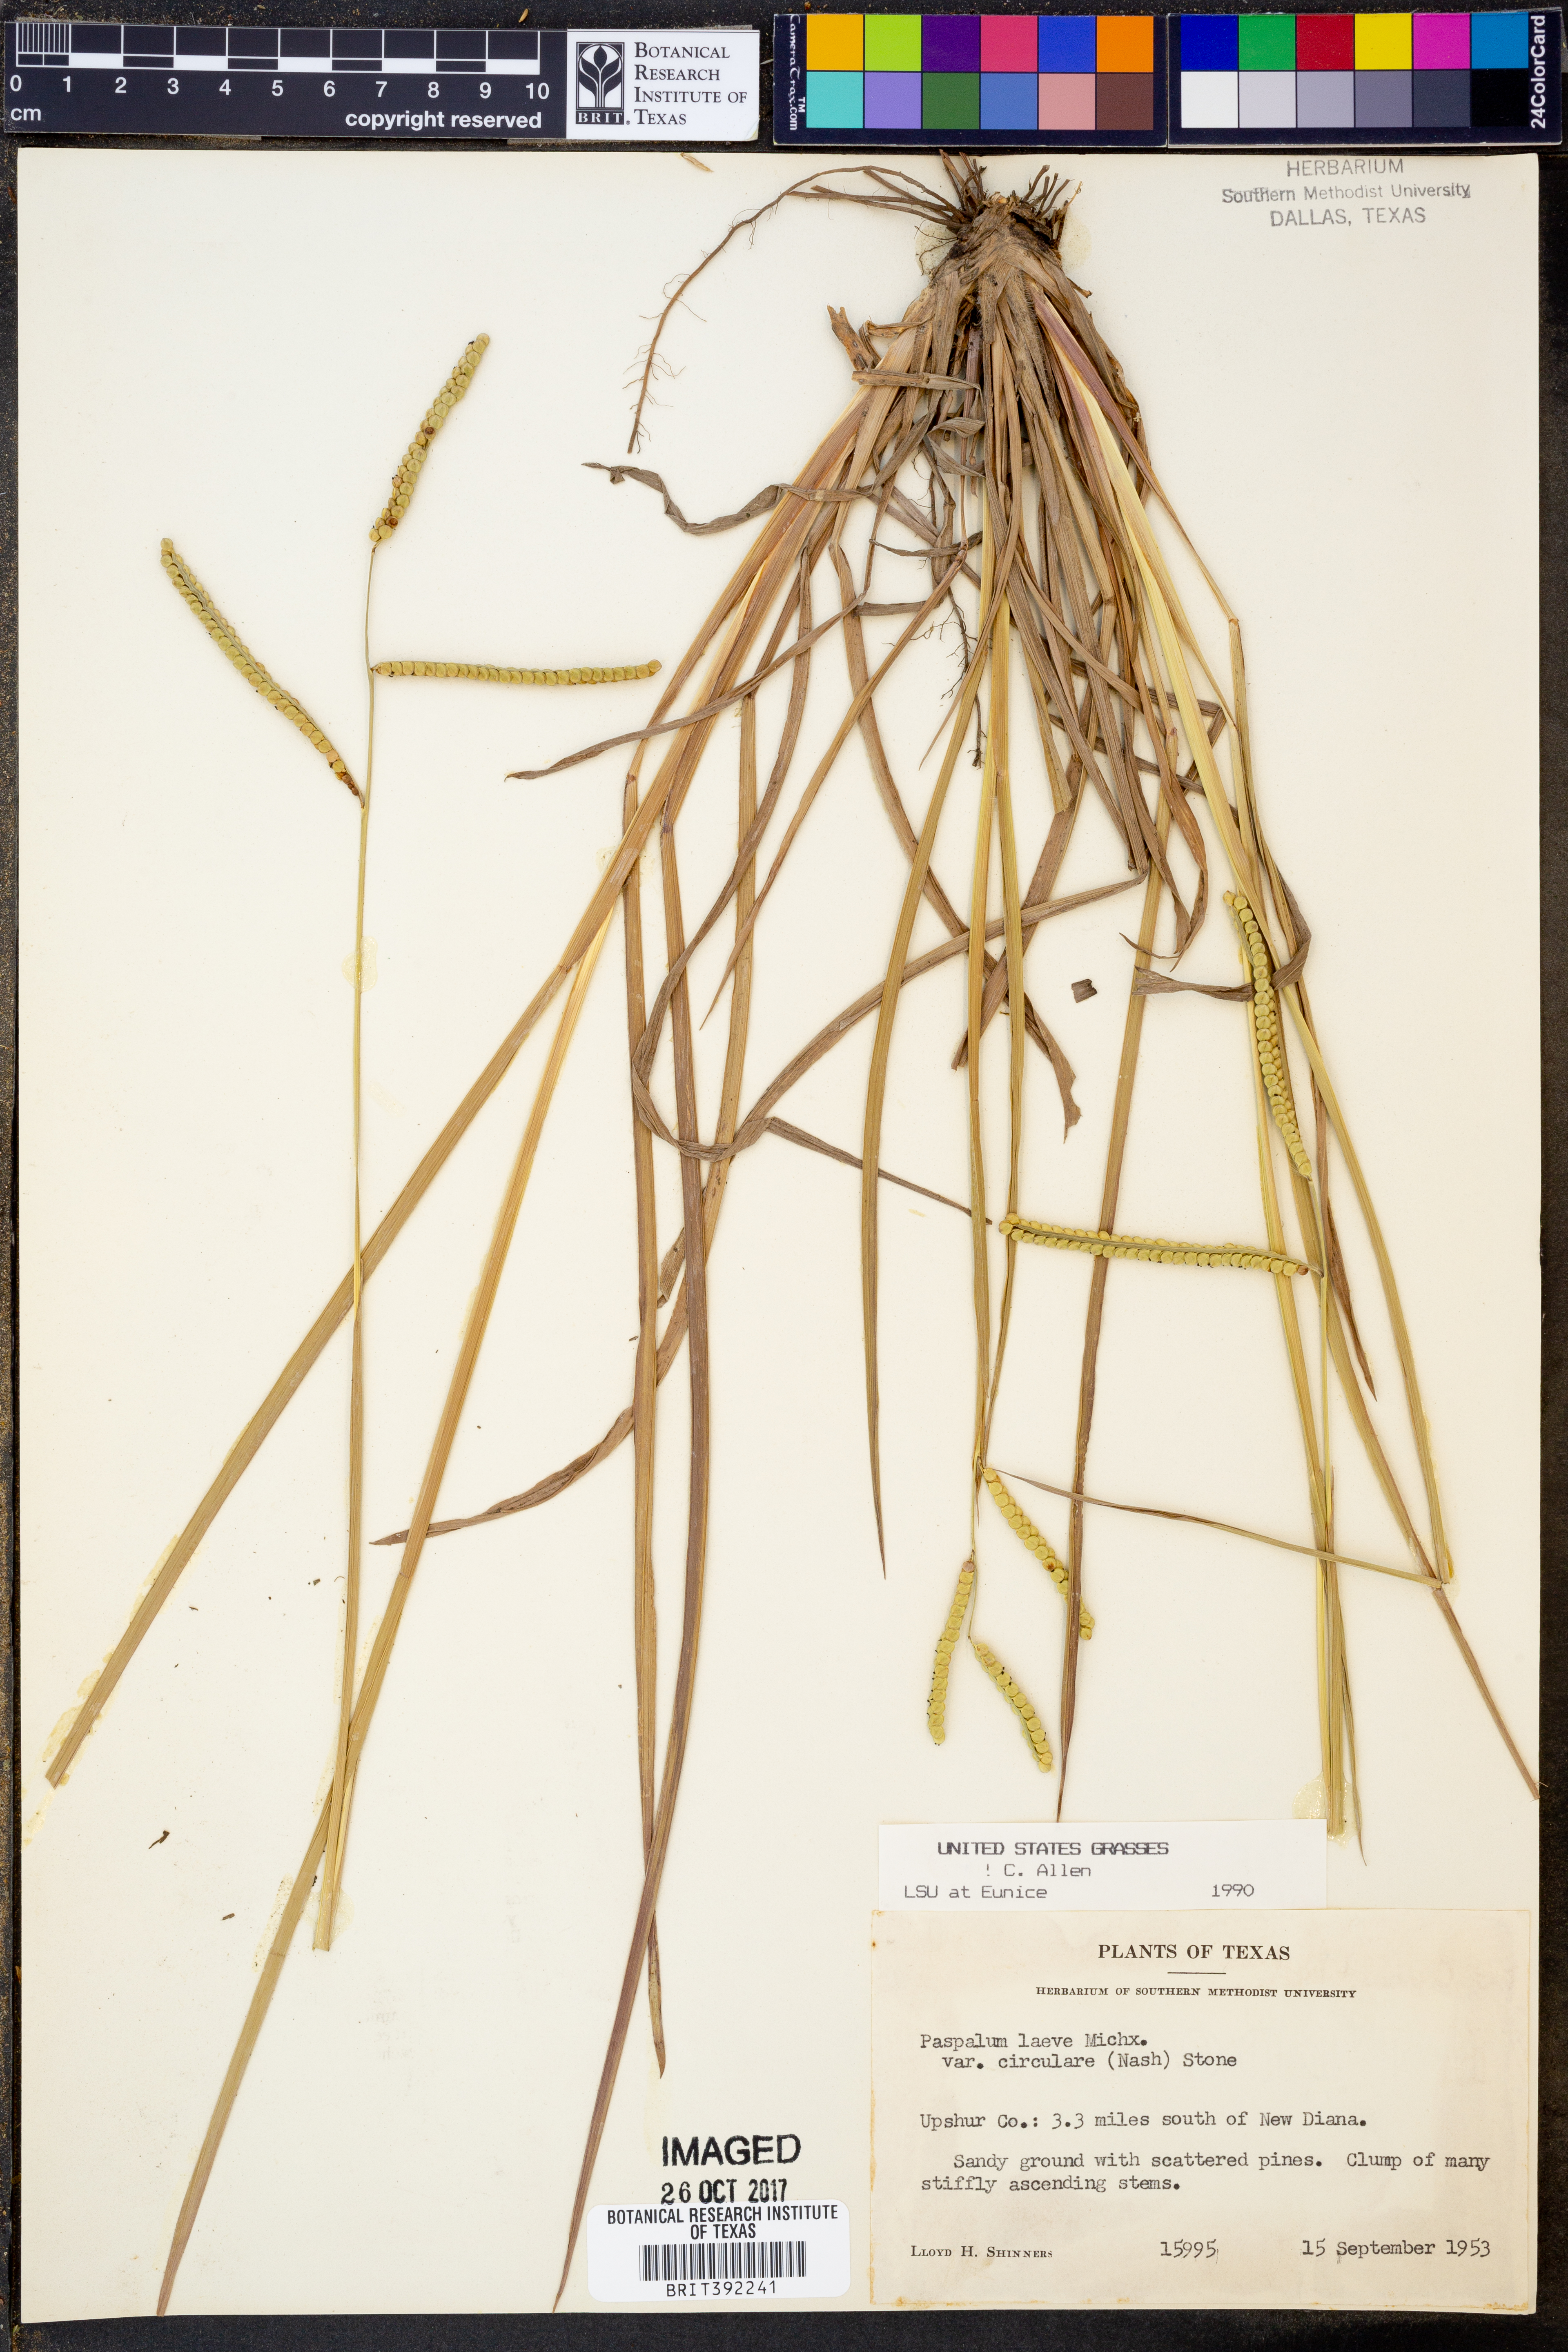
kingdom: Plantae
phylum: Tracheophyta
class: Liliopsida
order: Poales
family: Poaceae
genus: Paspalum
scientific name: Paspalum laeve
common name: Field paspalum
